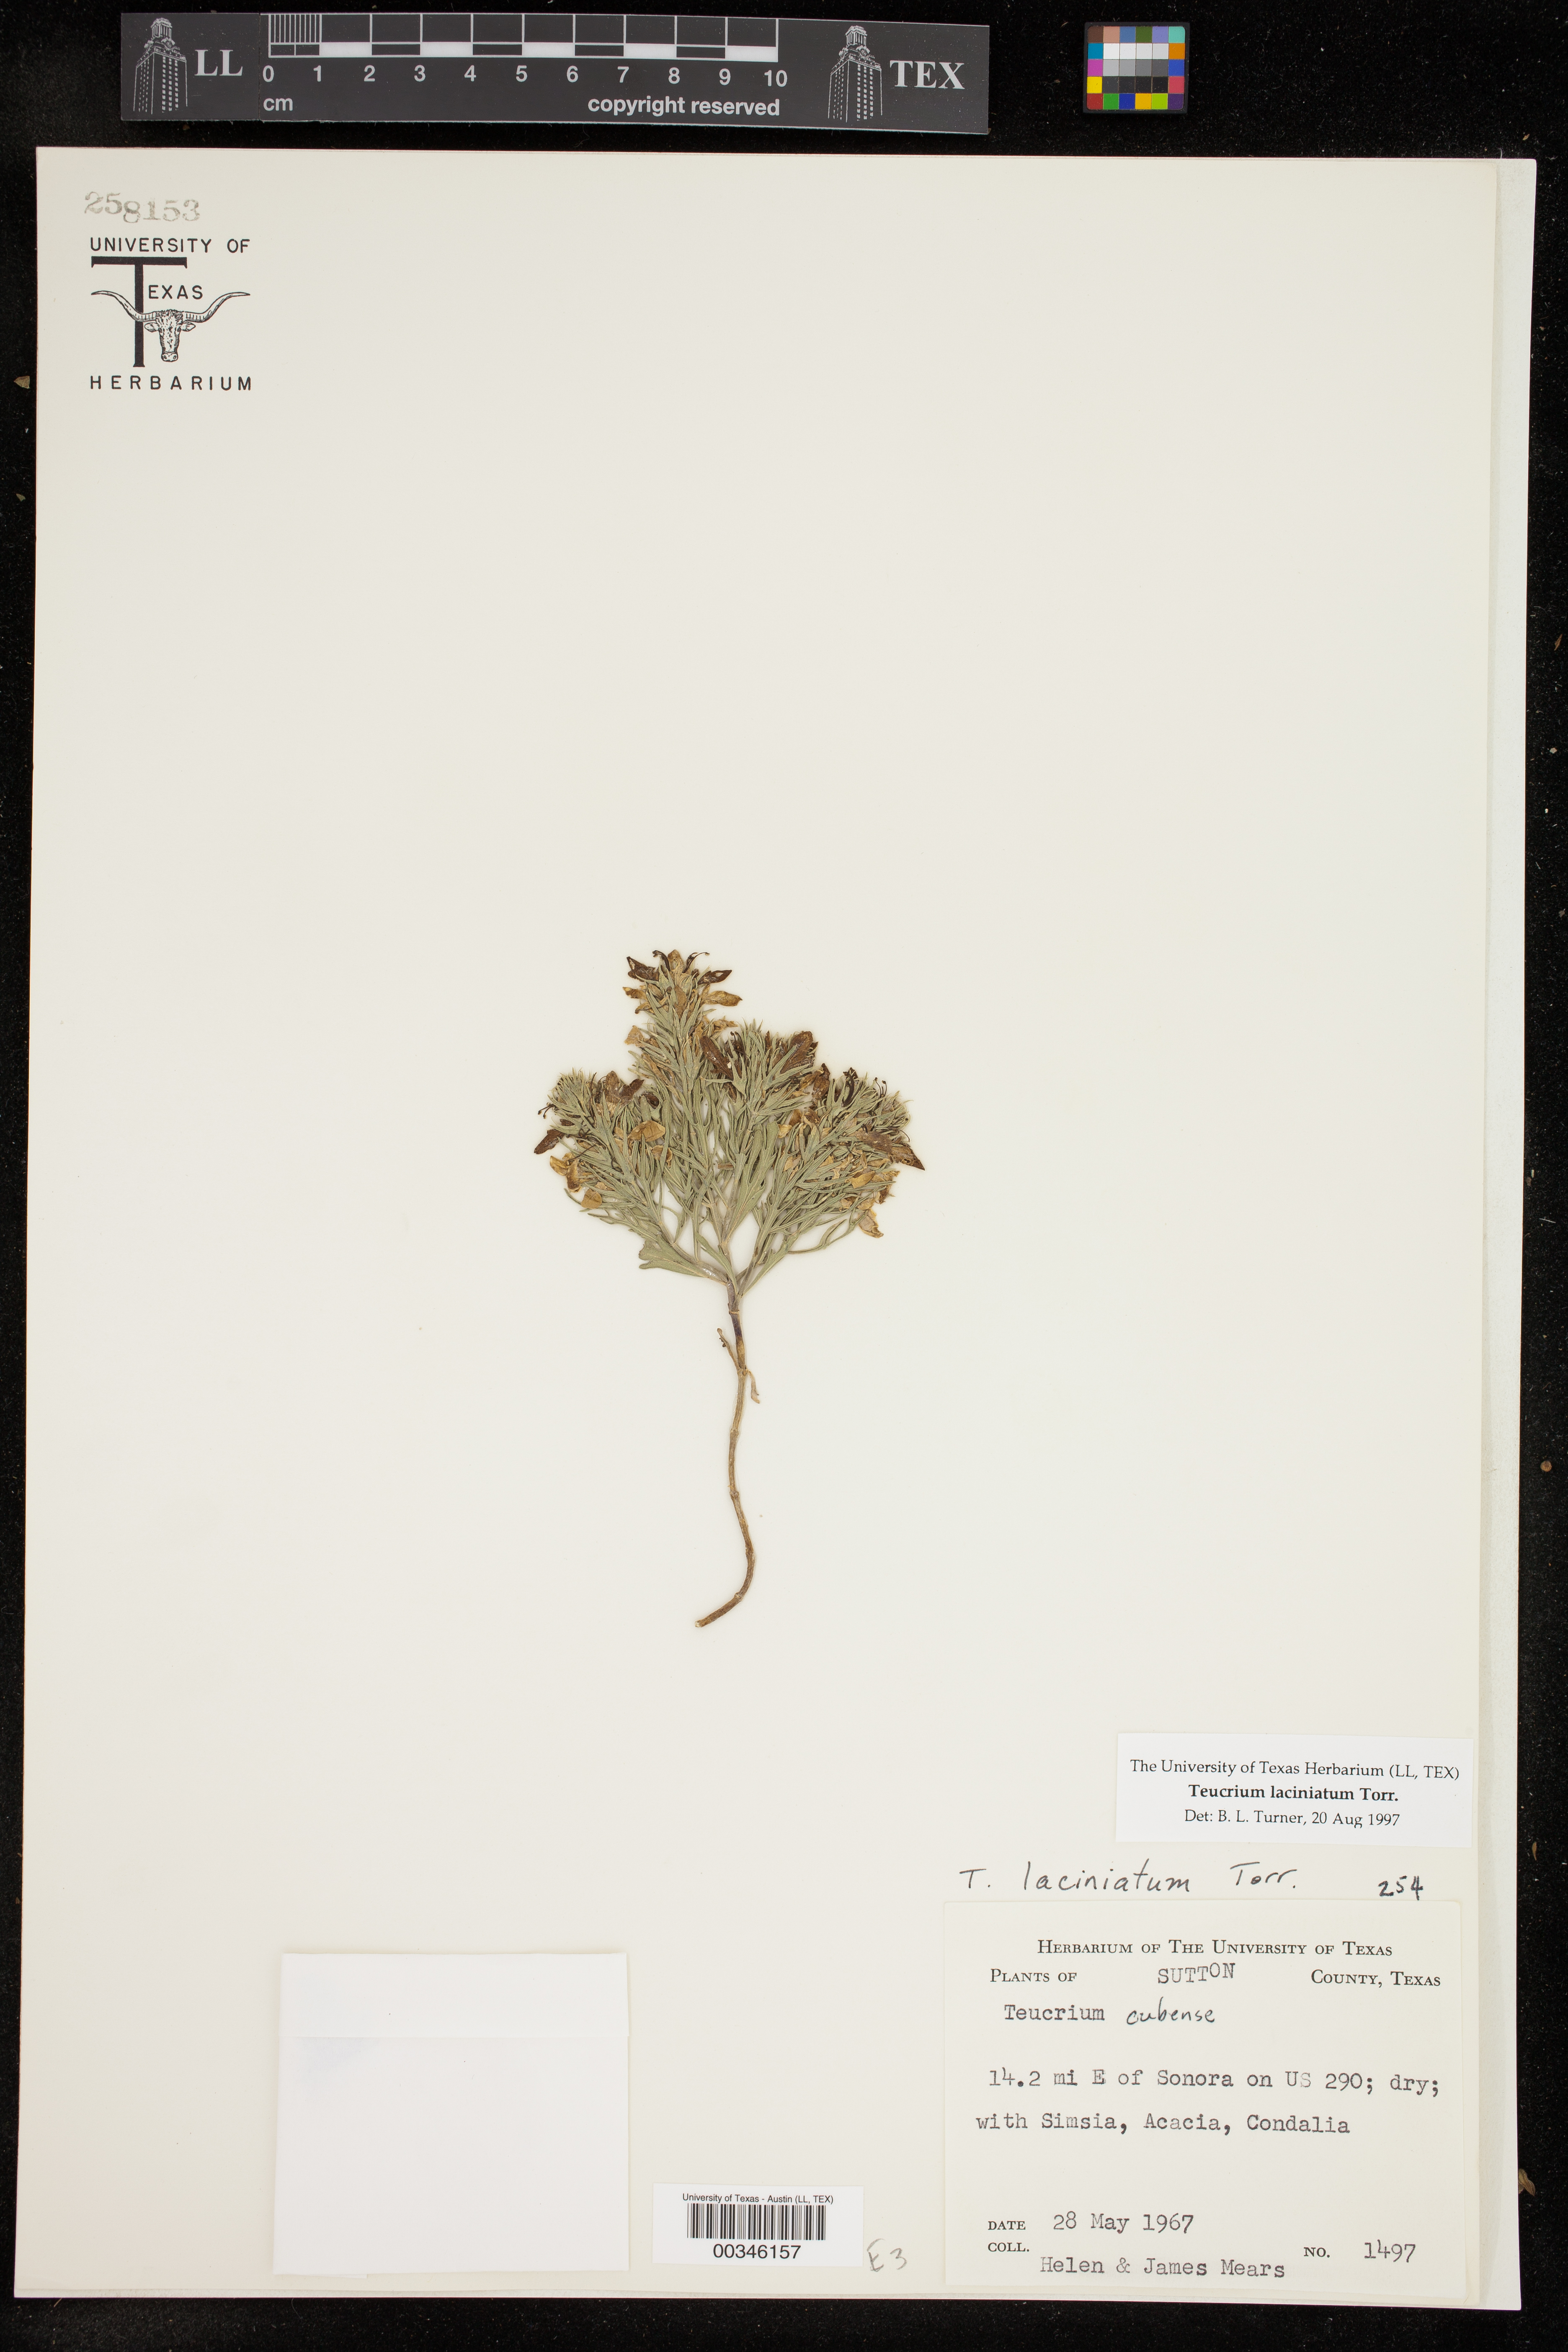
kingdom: Plantae
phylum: Tracheophyta
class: Magnoliopsida
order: Lamiales
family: Lamiaceae
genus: Teucrium
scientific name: Teucrium laciniatum
